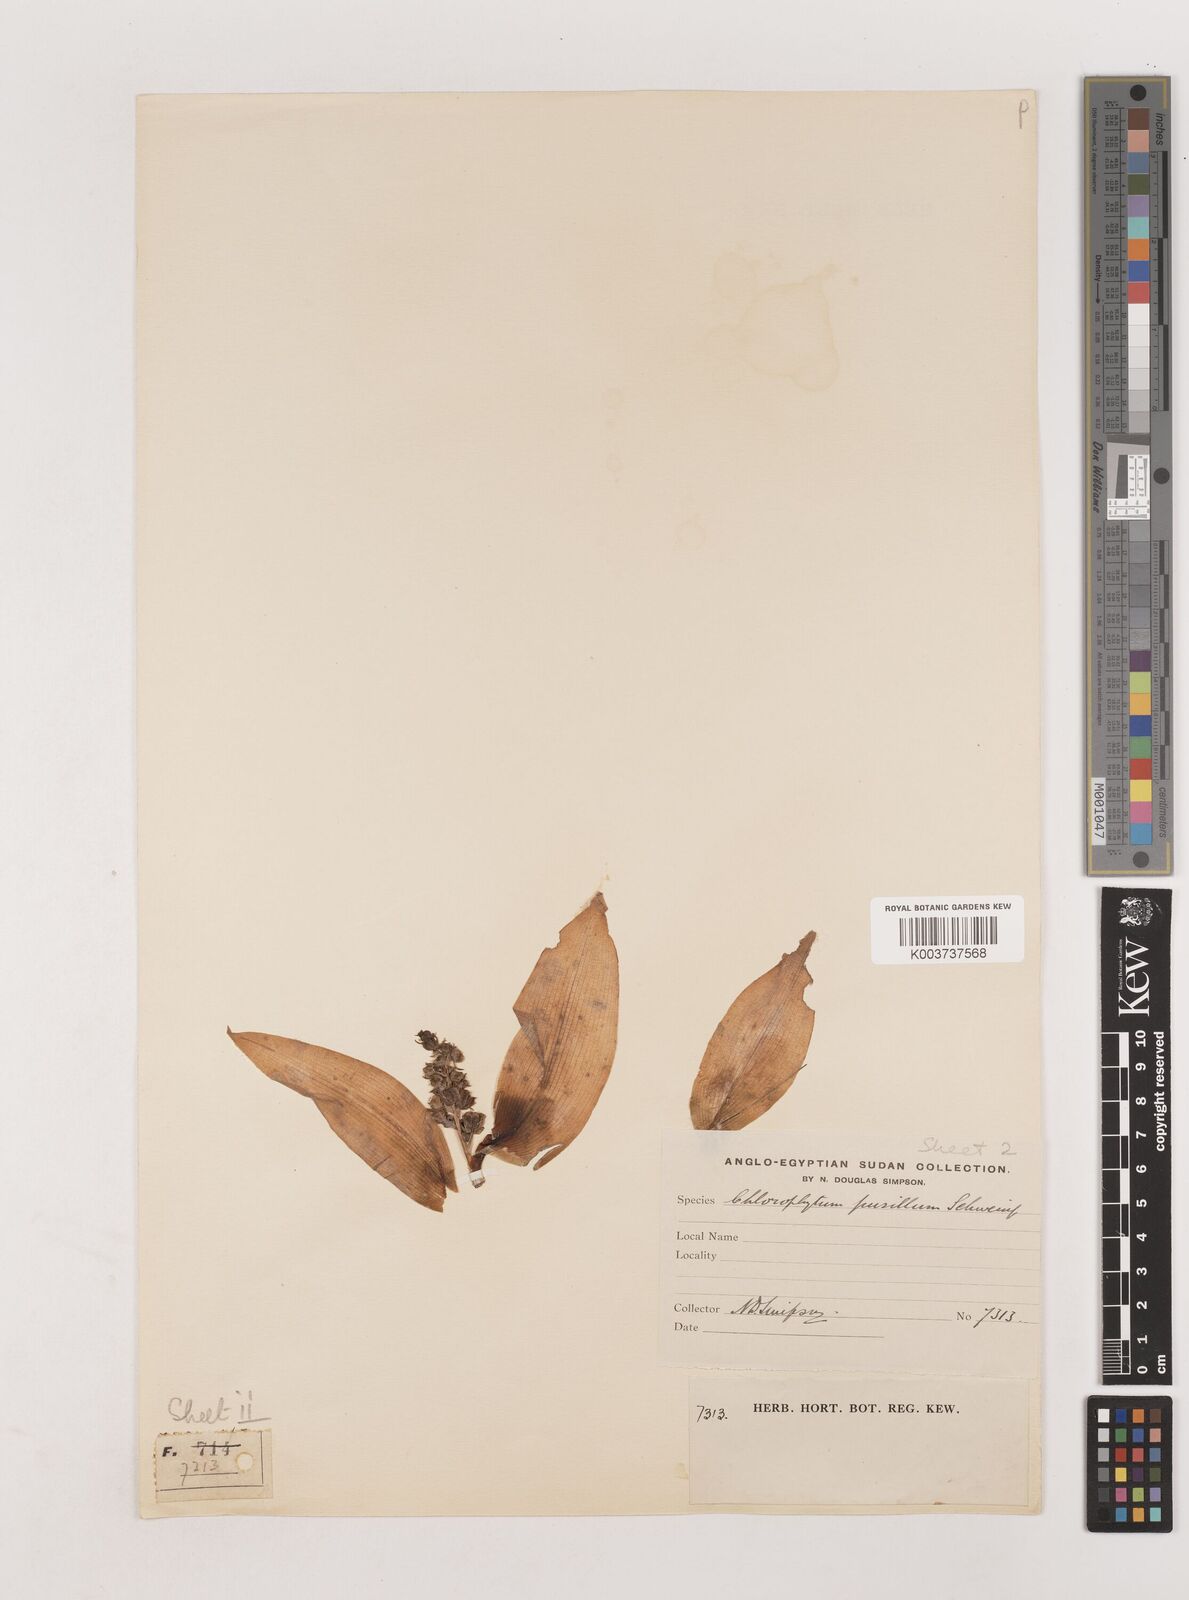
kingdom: Plantae
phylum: Tracheophyta
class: Liliopsida
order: Asparagales
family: Asparagaceae
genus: Chlorophytum
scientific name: Chlorophytum pusillum
